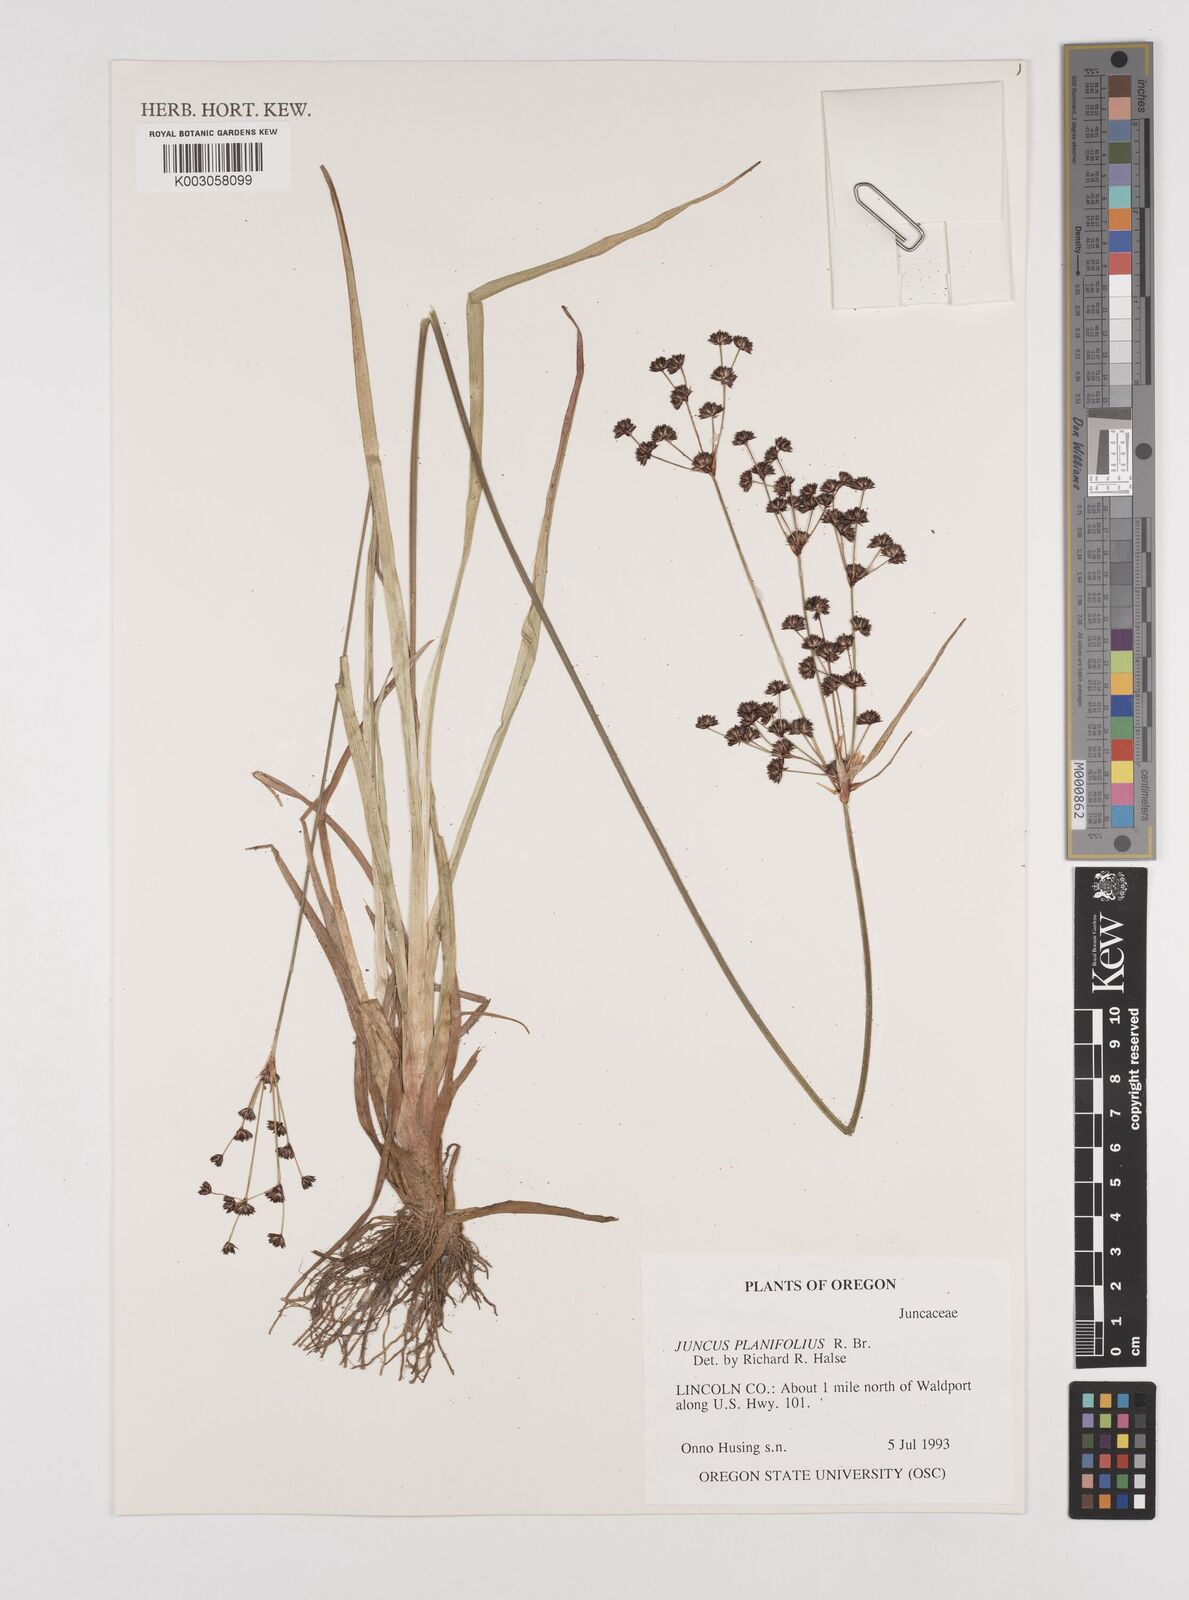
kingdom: Plantae
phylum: Tracheophyta
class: Liliopsida
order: Poales
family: Juncaceae
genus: Juncus
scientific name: Juncus planifolius
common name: Broadleaf rush
